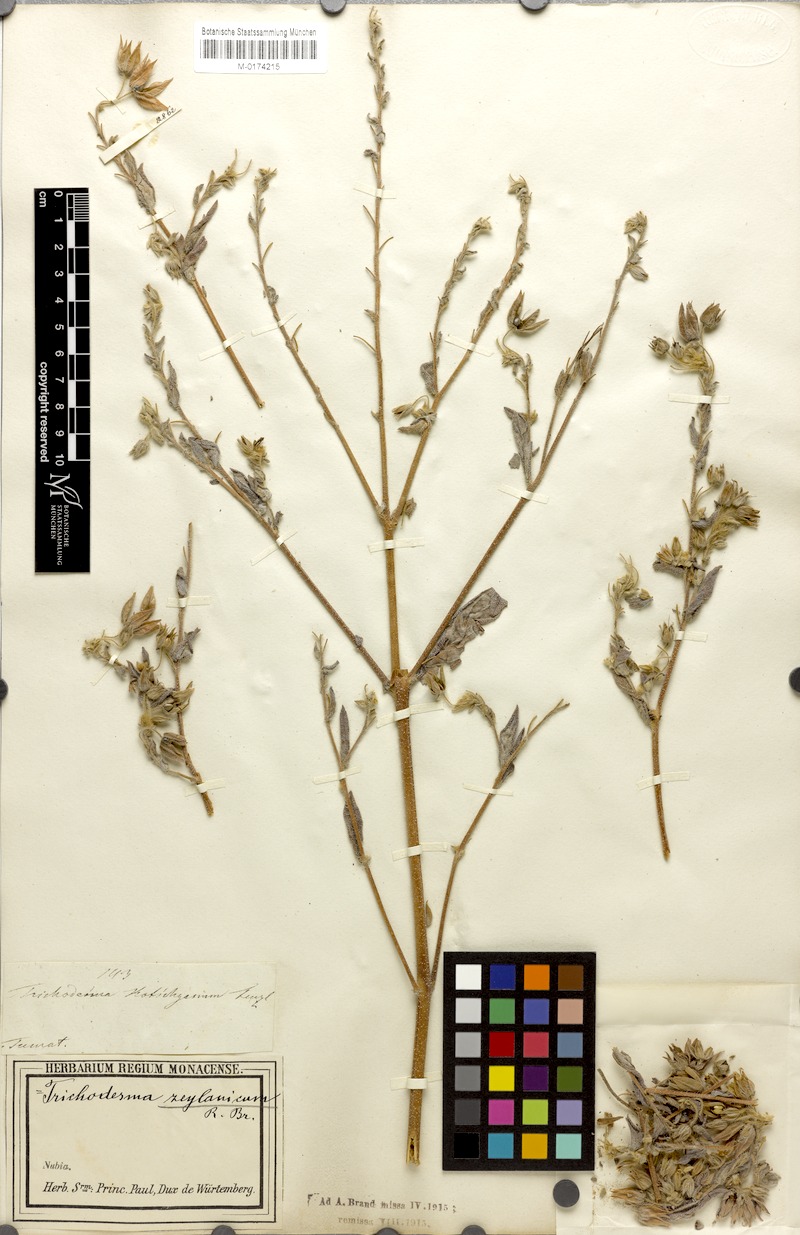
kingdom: Plantae
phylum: Tracheophyta
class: Magnoliopsida
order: Boraginales
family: Boraginaceae
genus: Trichodesma
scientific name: Trichodesma zeylanicum
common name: Camelbush
